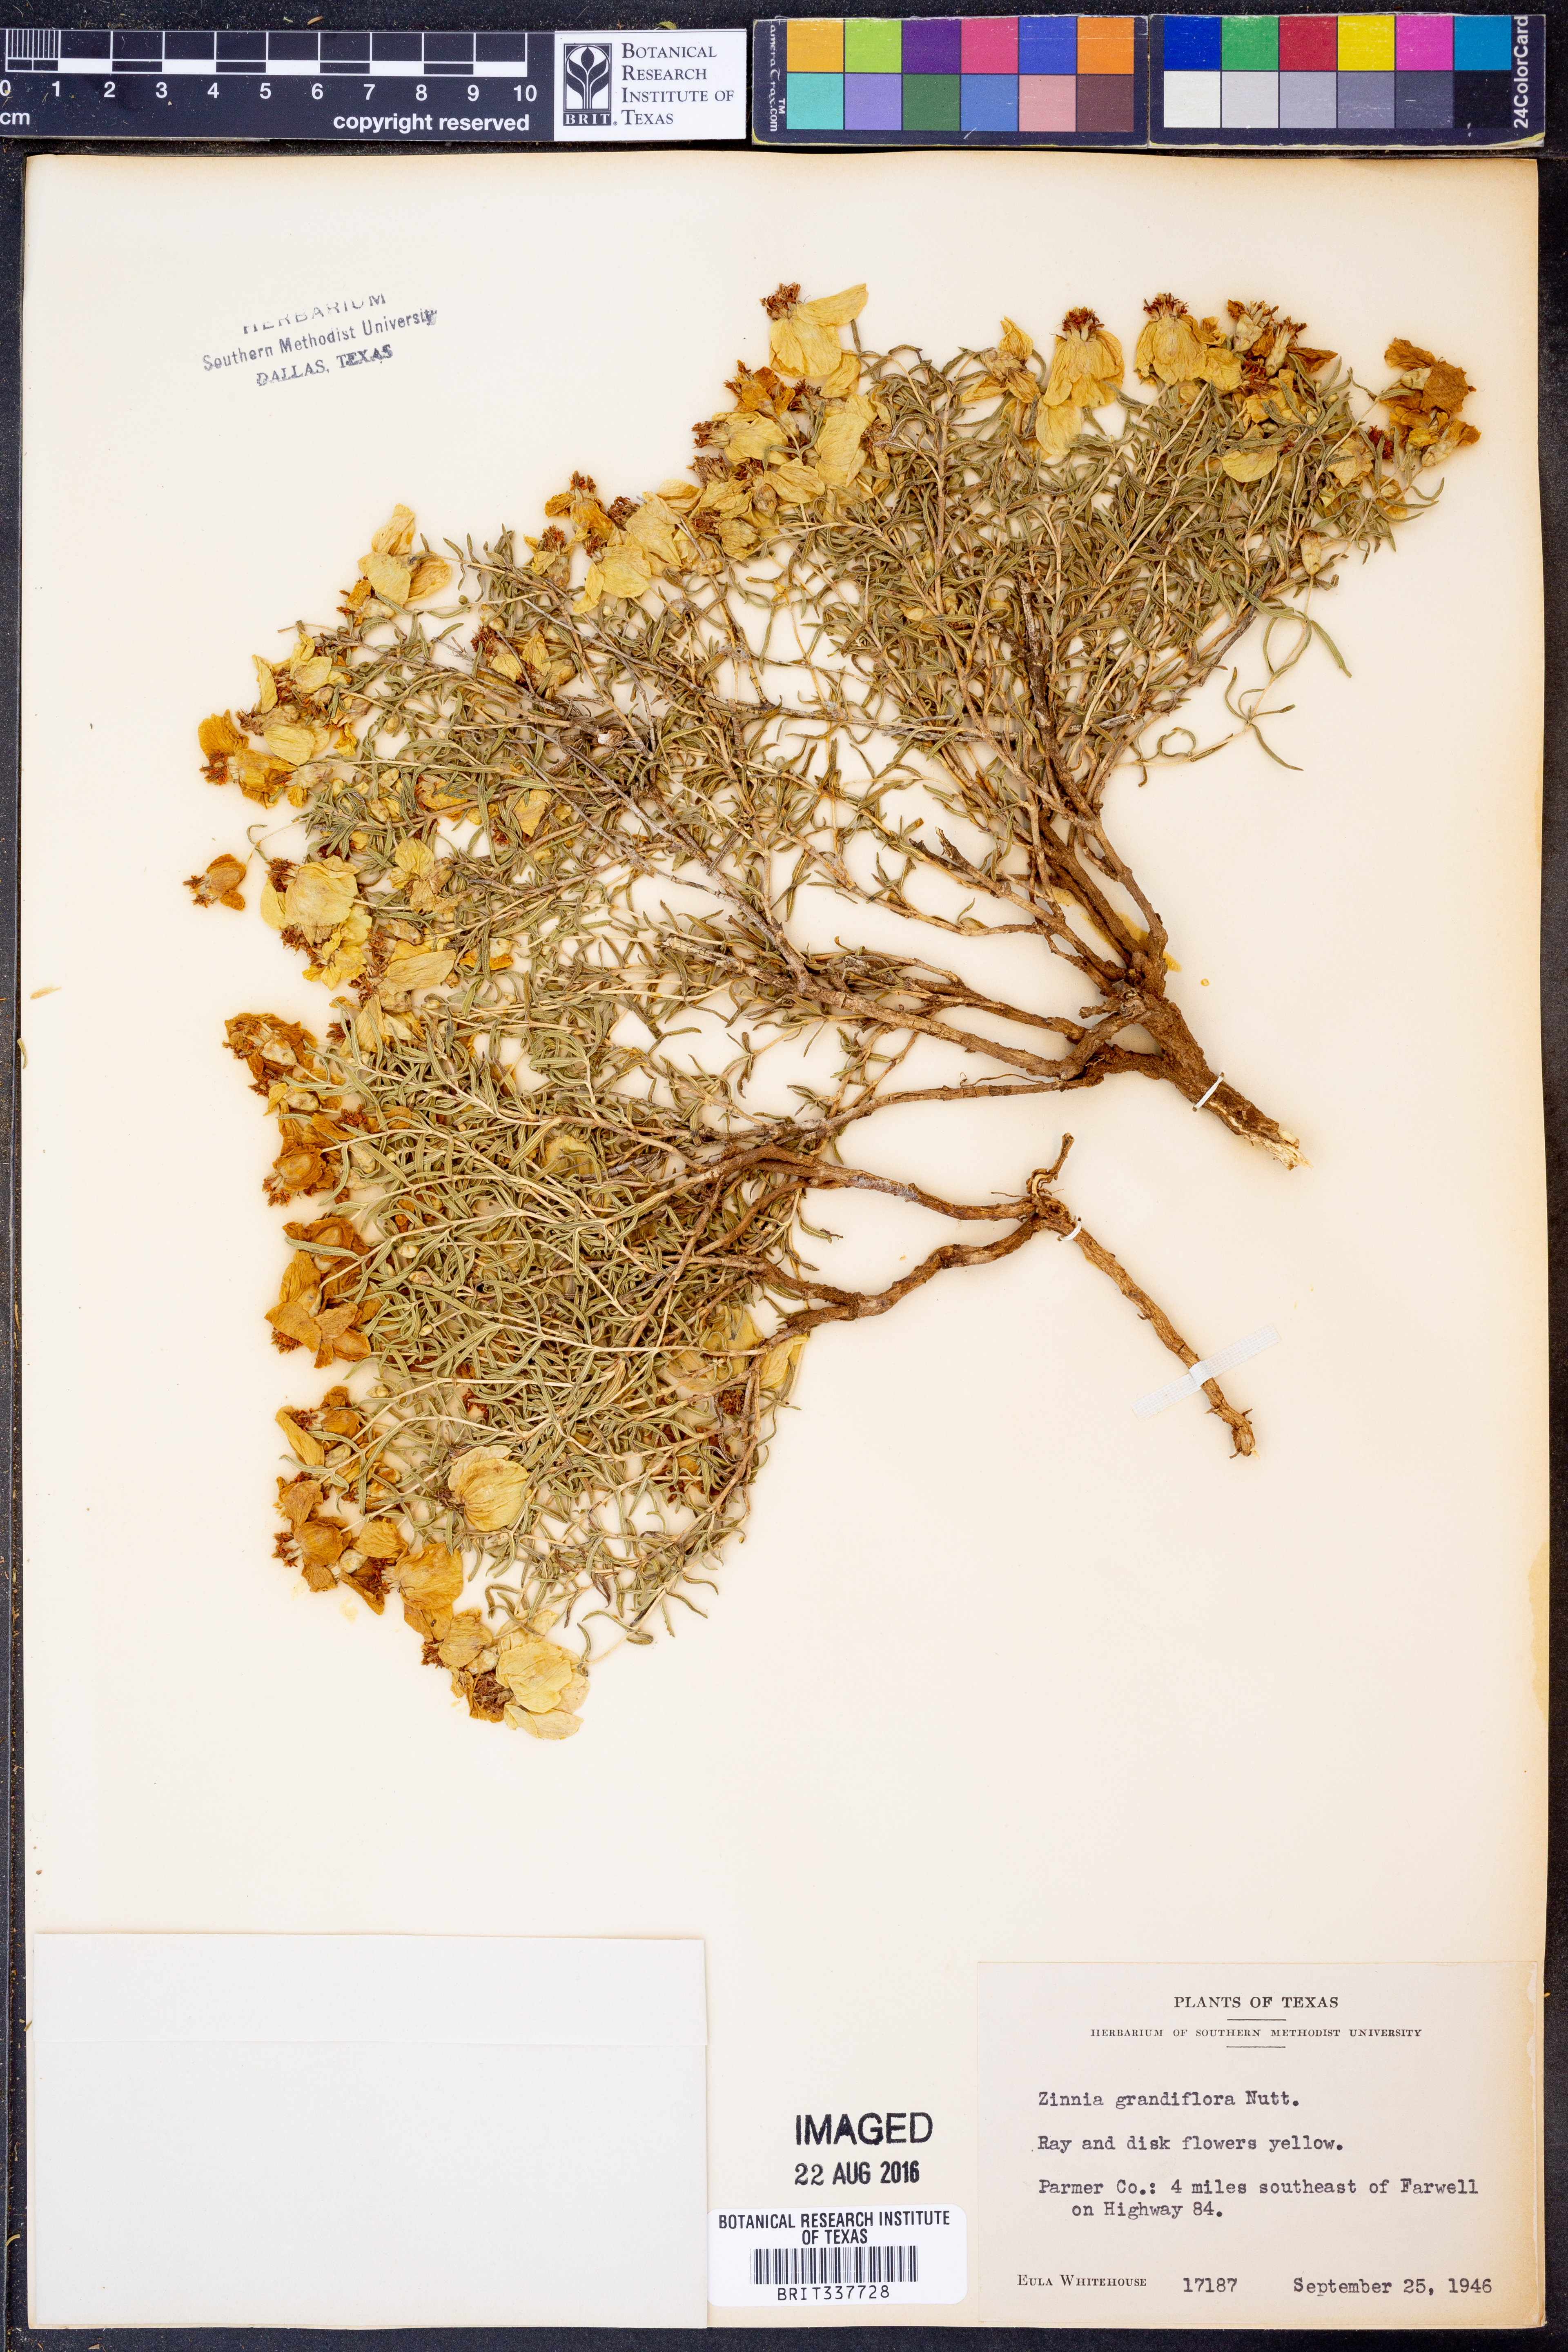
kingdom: Plantae
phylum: Tracheophyta
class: Magnoliopsida
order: Asterales
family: Asteraceae
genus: Zinnia
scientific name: Zinnia grandiflora
